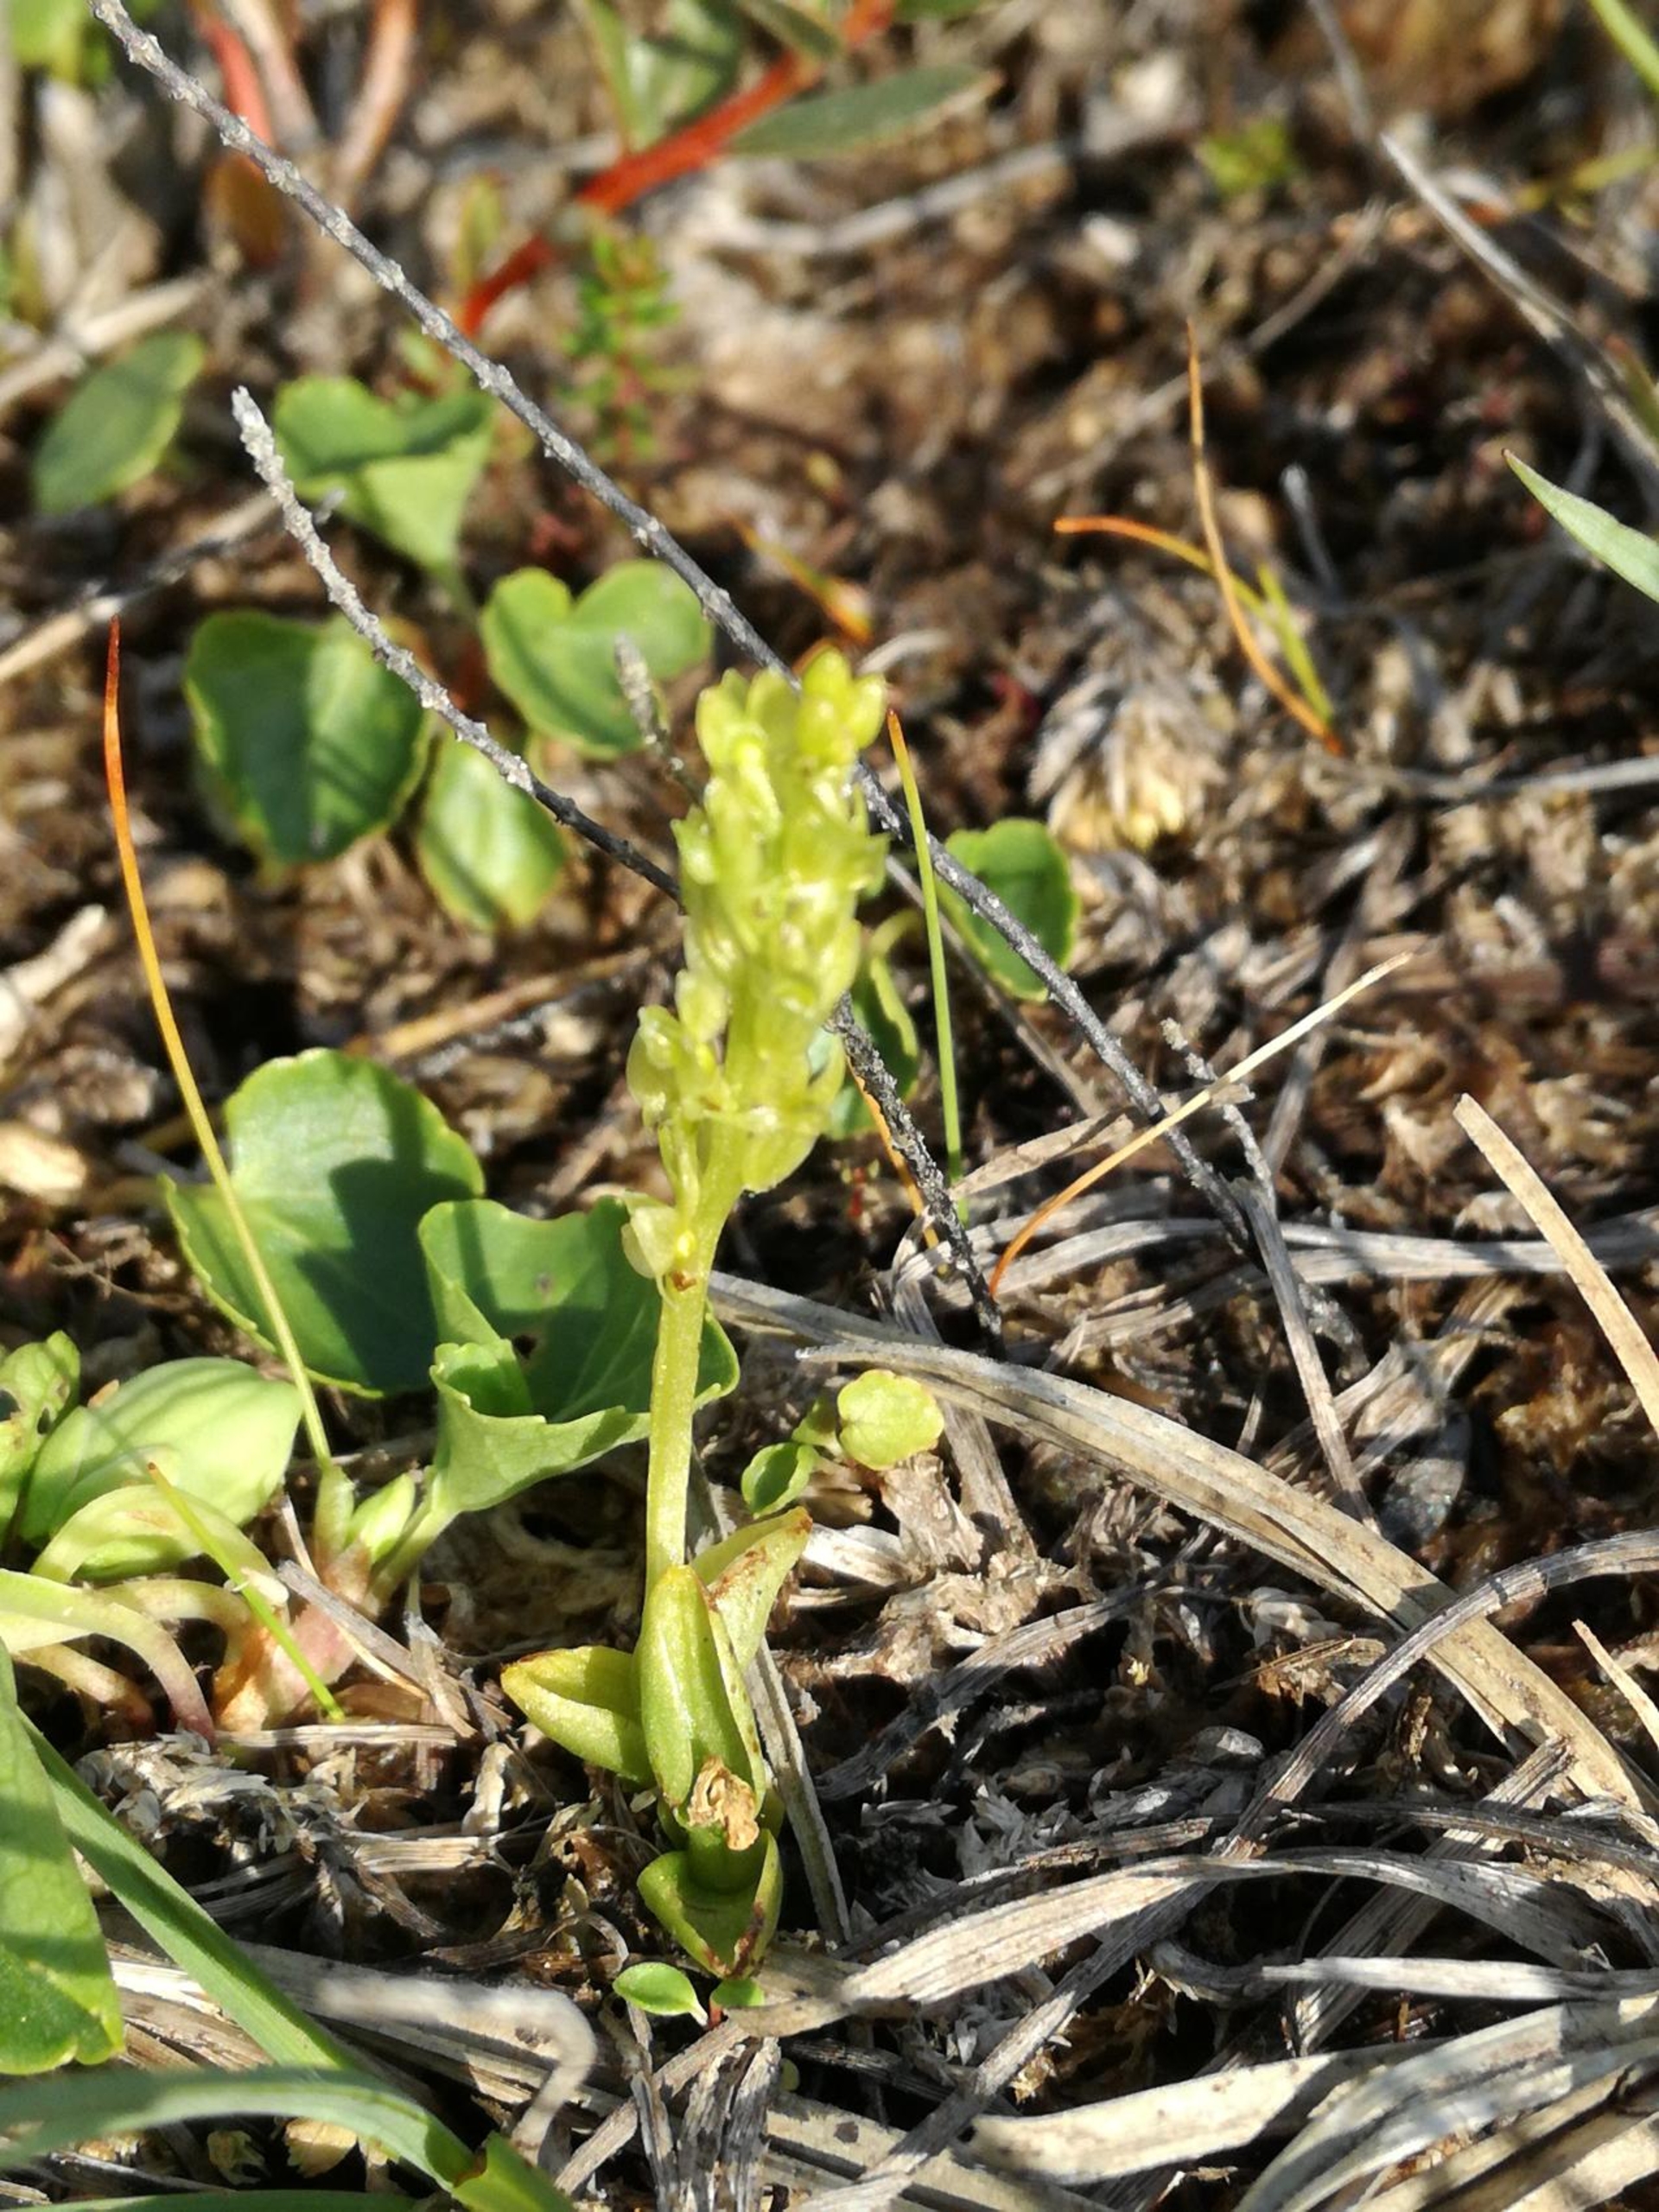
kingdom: Plantae
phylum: Tracheophyta
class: Liliopsida
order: Asparagales
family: Orchidaceae
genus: Hammarbya
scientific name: Hammarbya paludosa
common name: Hjertelæbe
